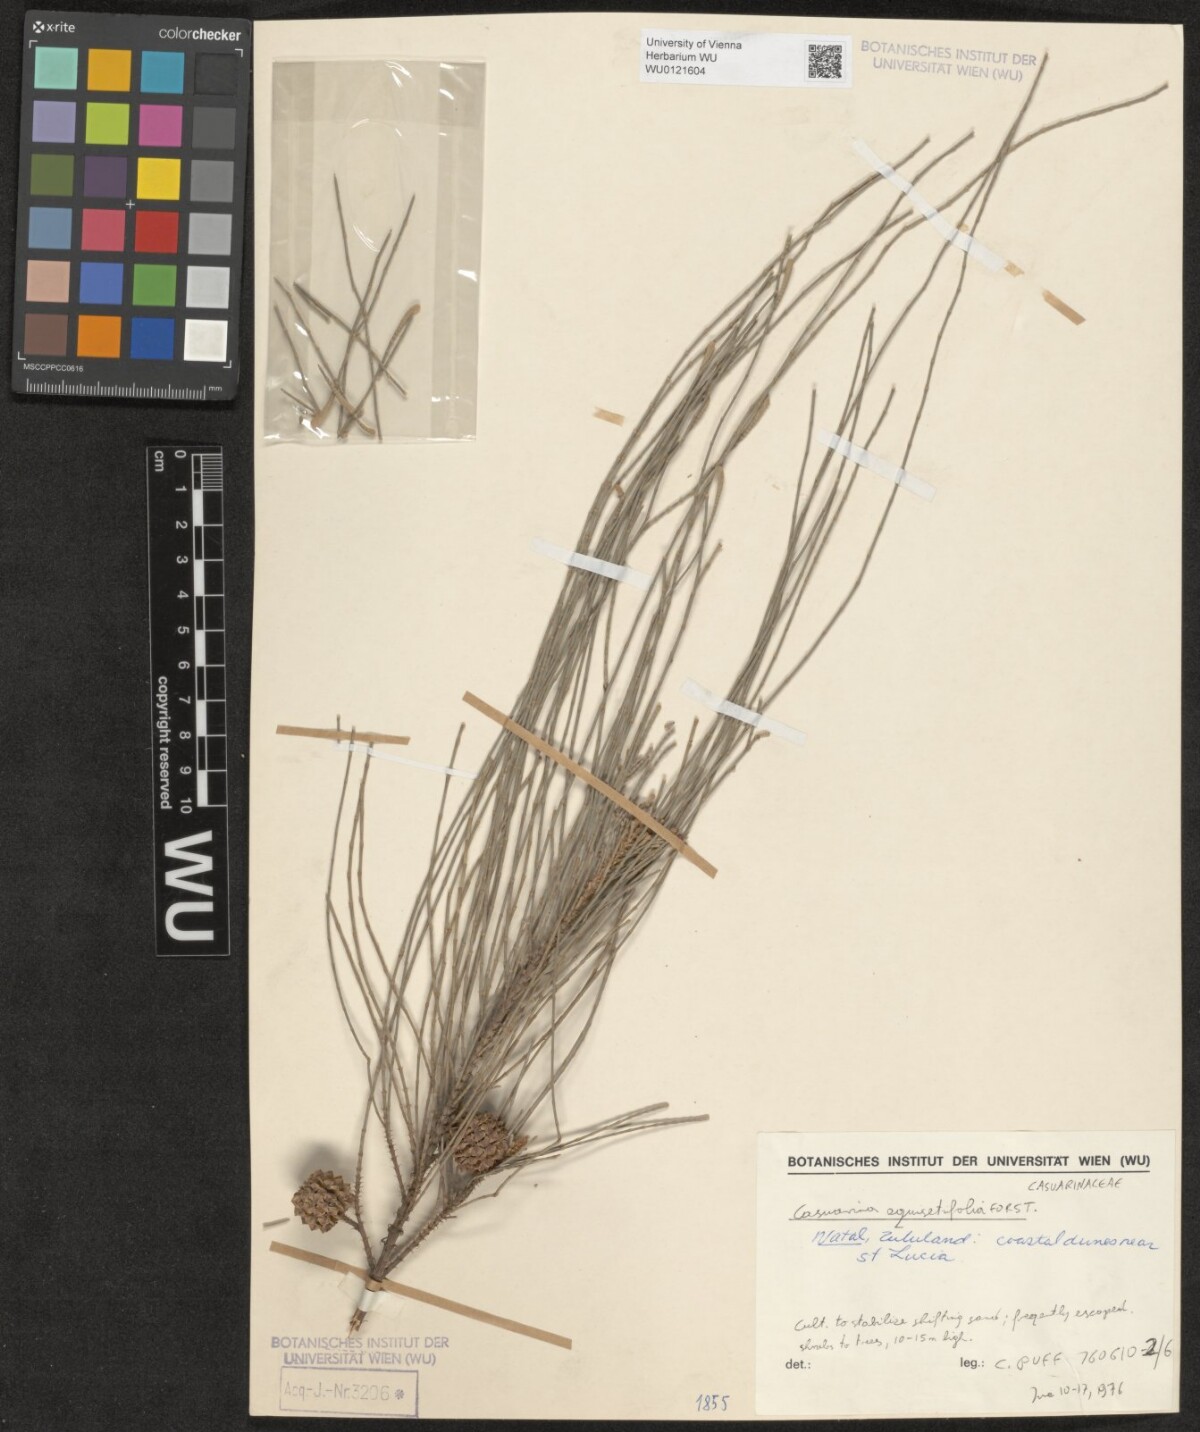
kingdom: Plantae
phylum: Tracheophyta
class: Magnoliopsida
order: Fagales
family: Casuarinaceae
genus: Casuarina
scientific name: Casuarina equisetifolia
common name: Beach sheoak
